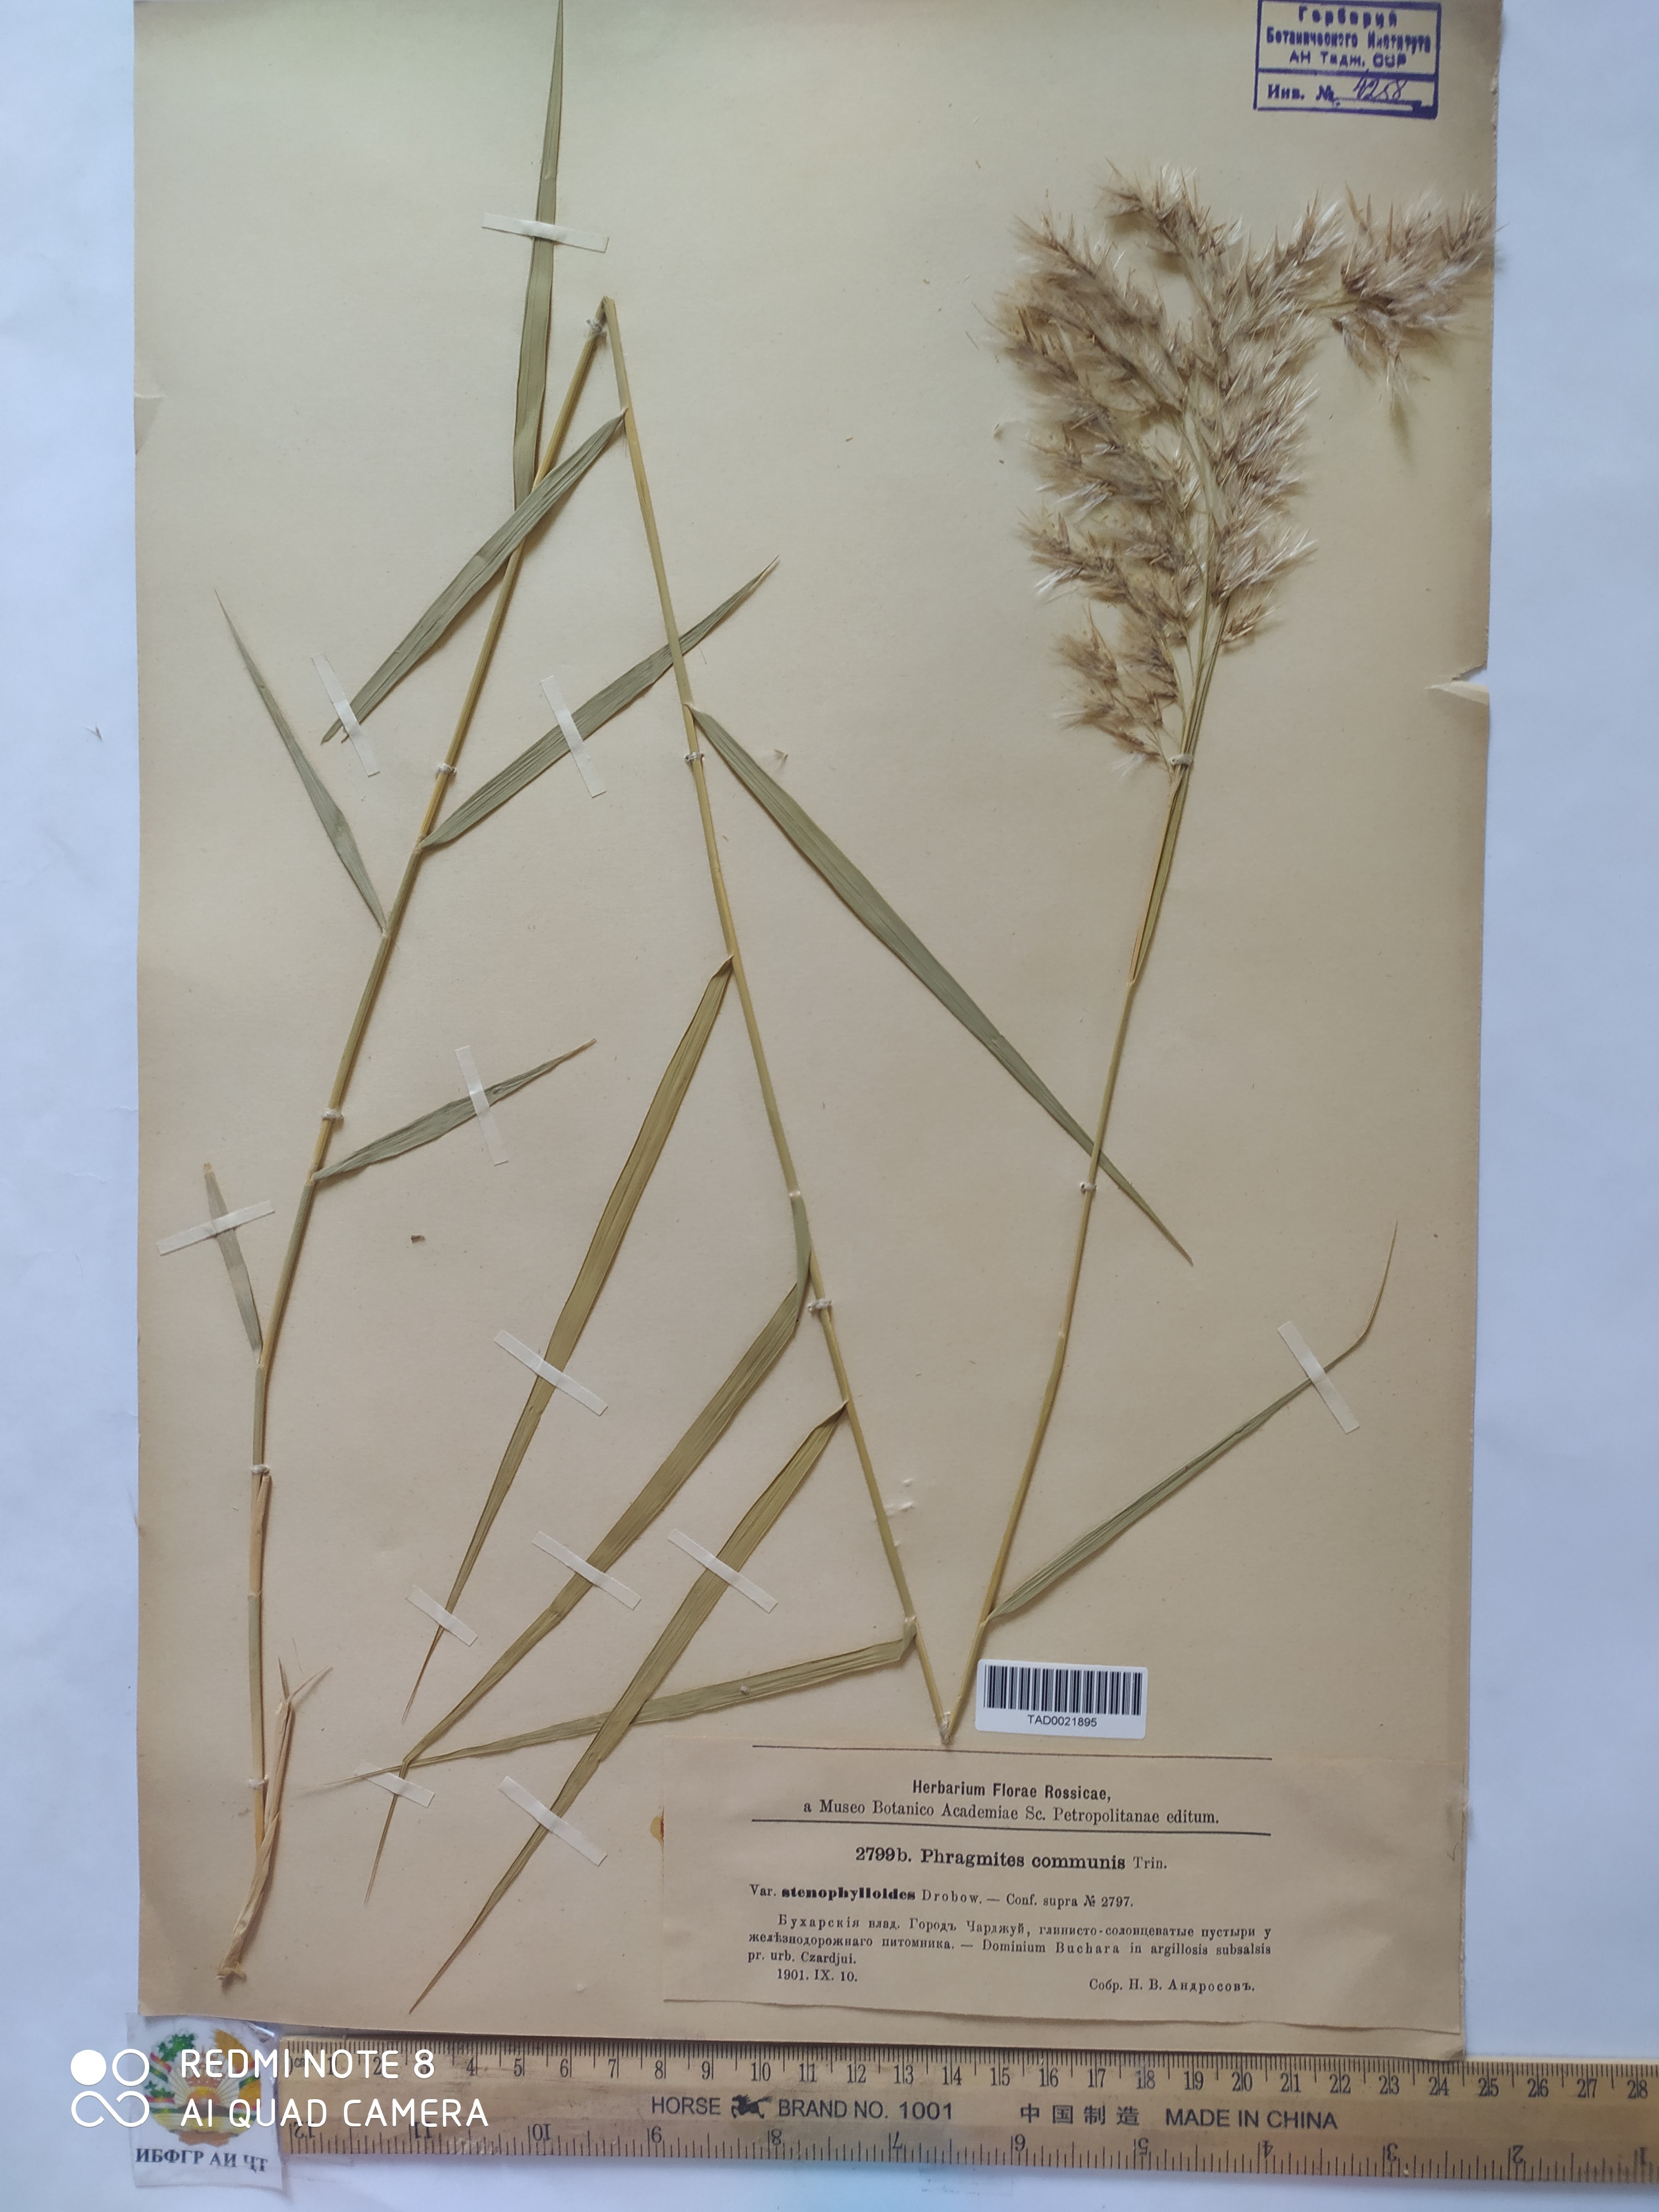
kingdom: Plantae
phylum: Tracheophyta
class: Liliopsida
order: Poales
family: Poaceae
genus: Phragmites
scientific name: Phragmites australis
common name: Common reed
